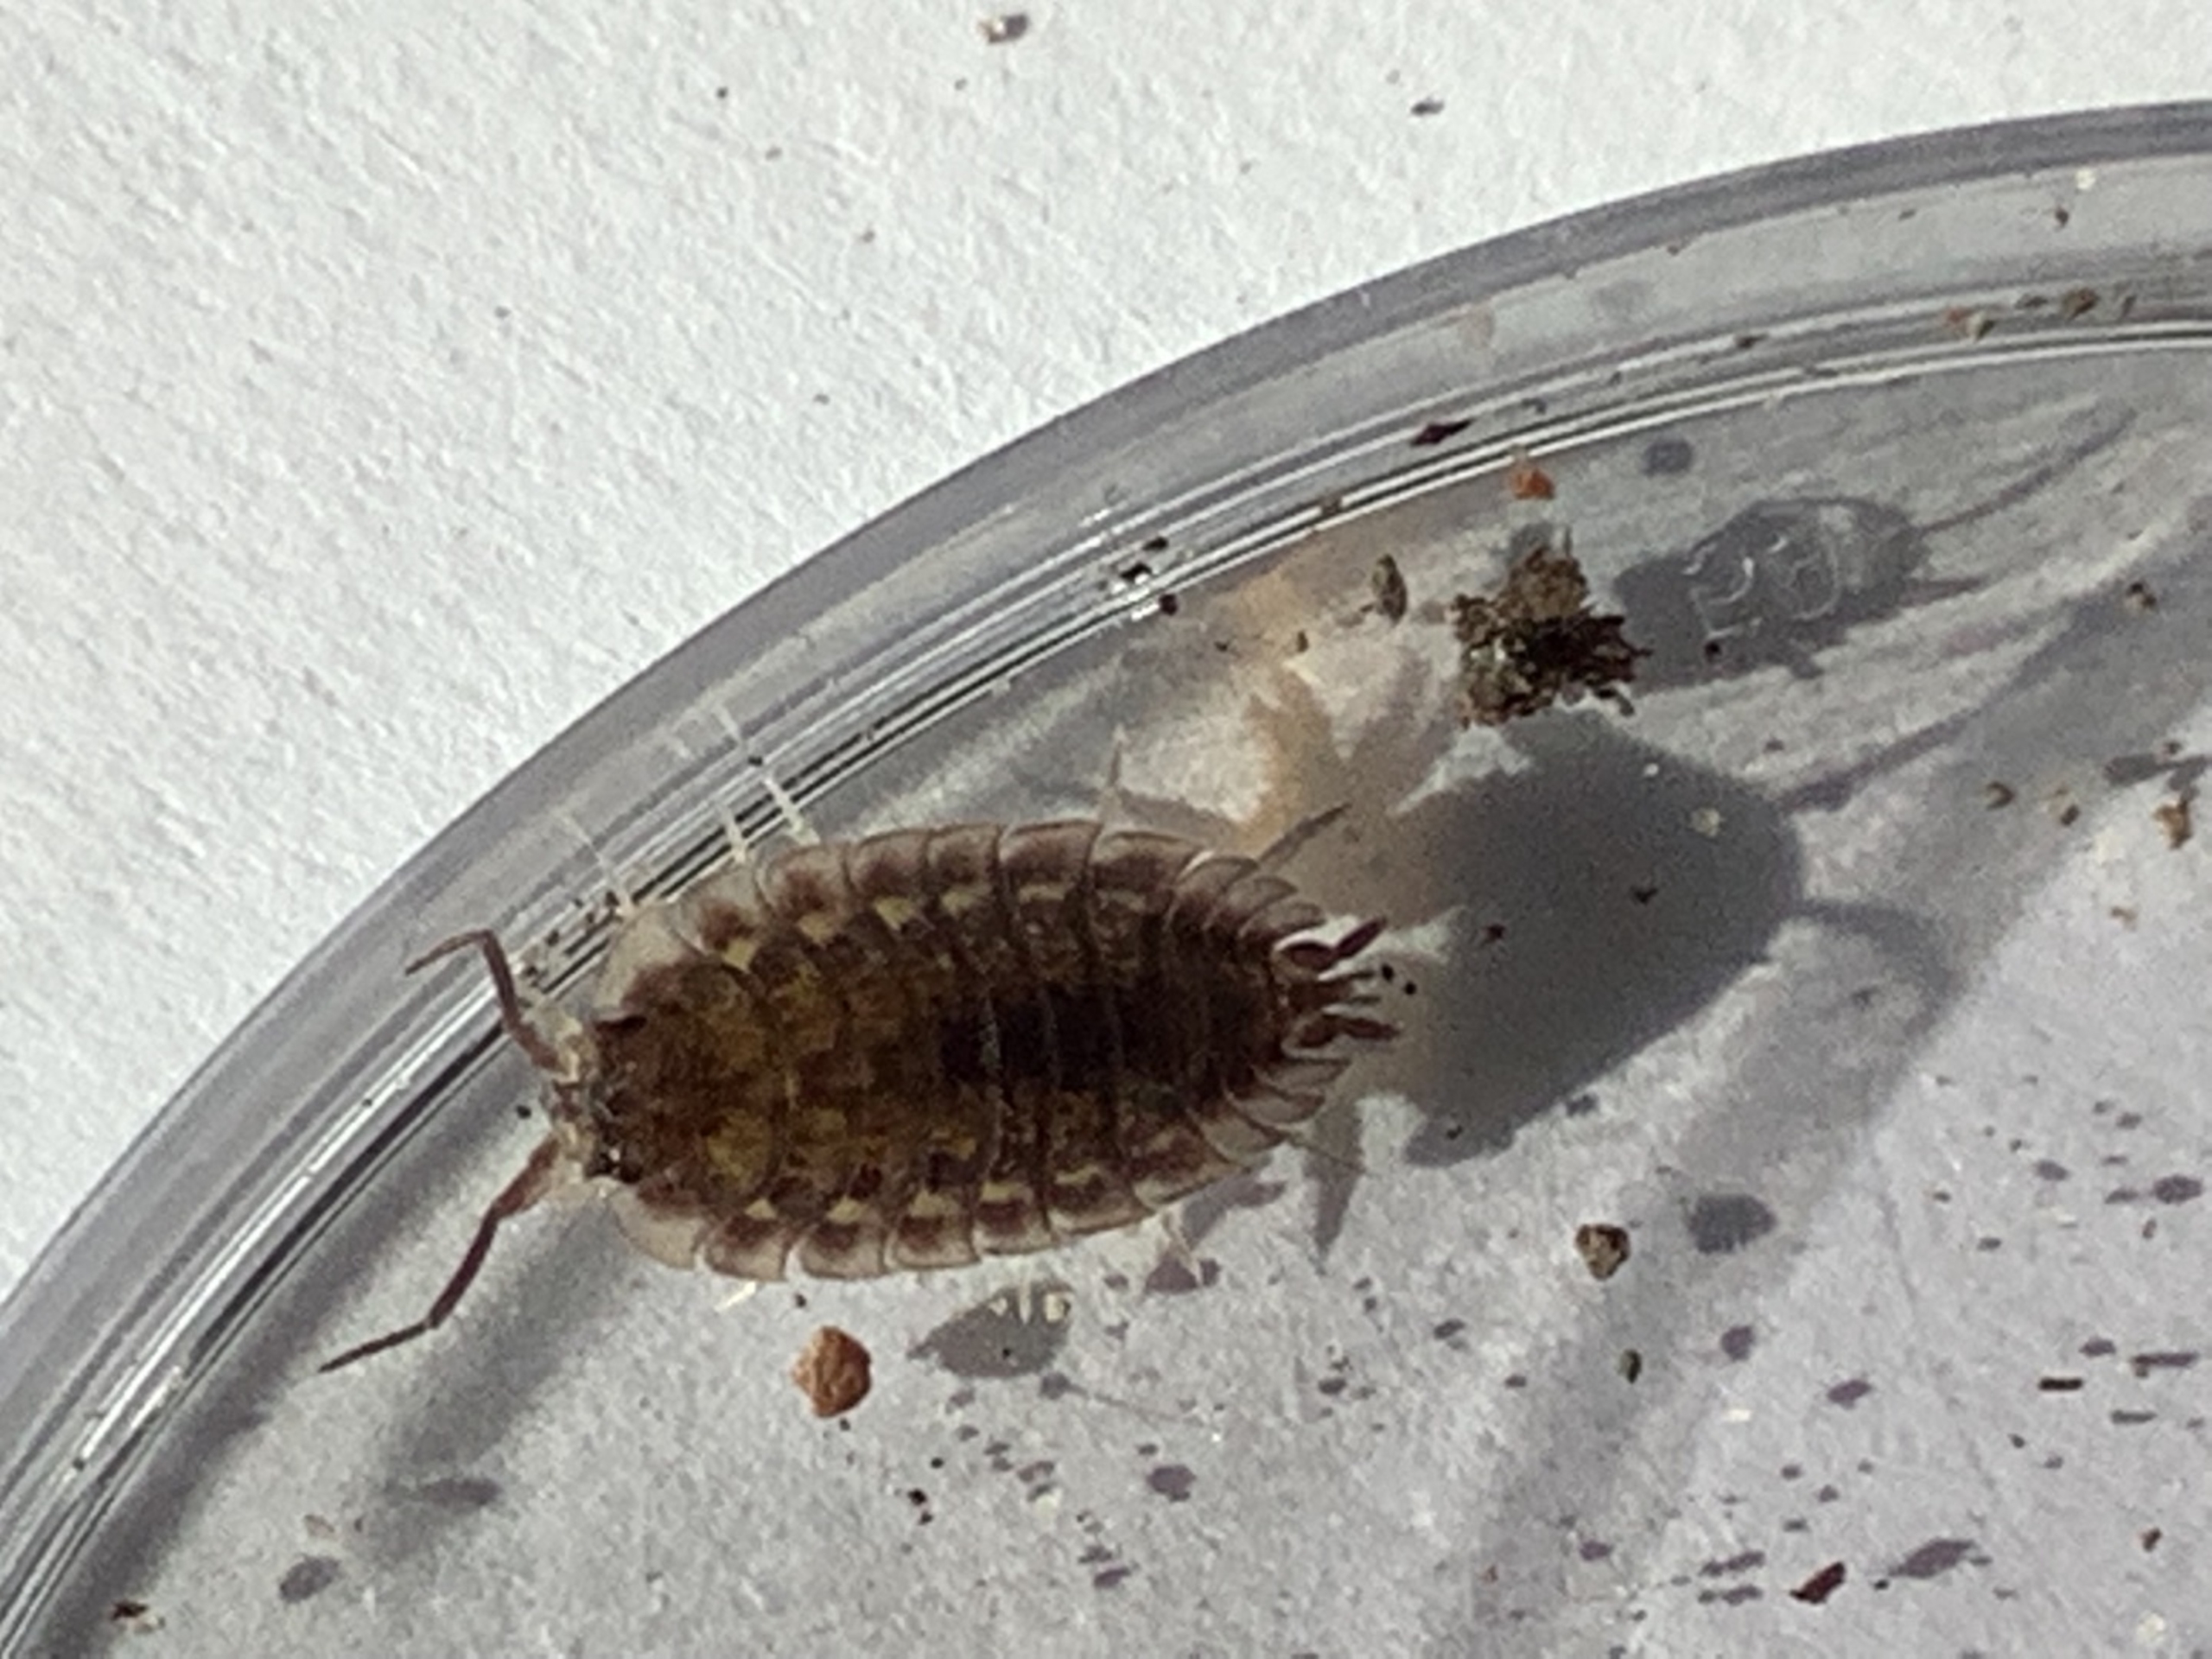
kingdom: Animalia
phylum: Arthropoda
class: Malacostraca
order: Isopoda
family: Oniscidae
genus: Oniscus
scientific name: Oniscus asellus
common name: Glat bænkebider
